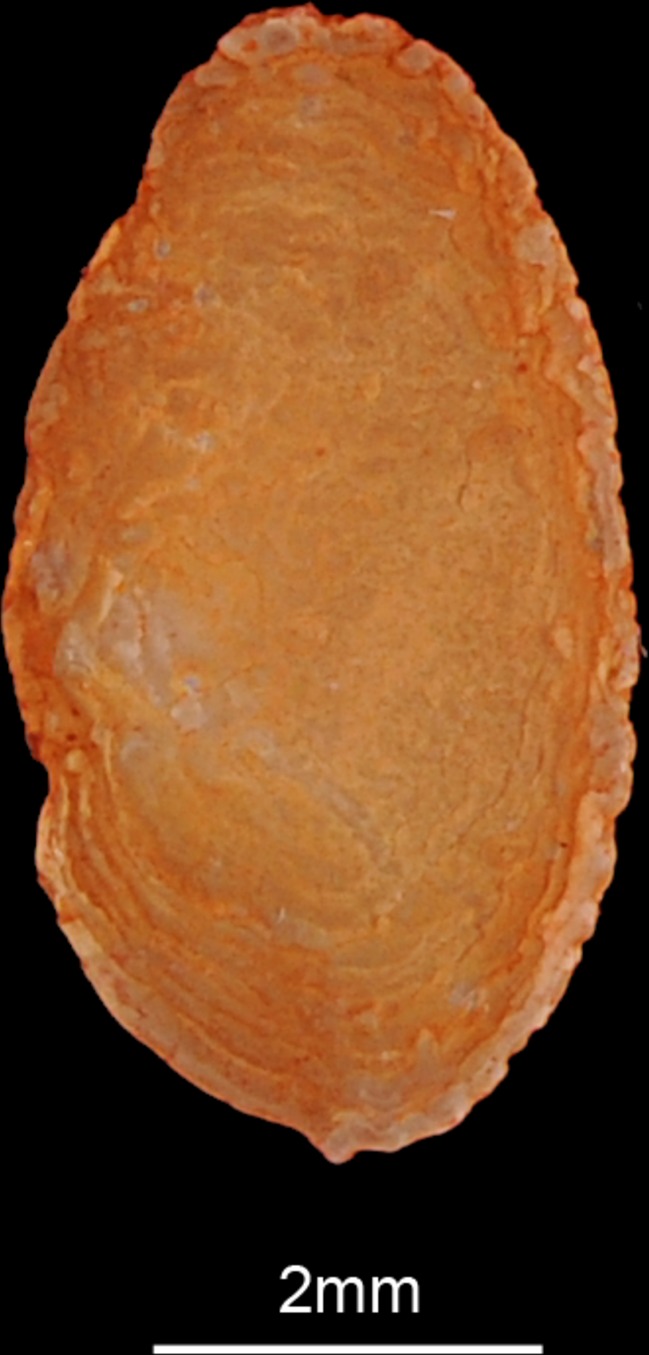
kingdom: Animalia
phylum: Chordata
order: Perciformes
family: Pomacanthidae
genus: Pomacanthus
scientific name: Pomacanthus maculosus
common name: Yellowbar angelfish
